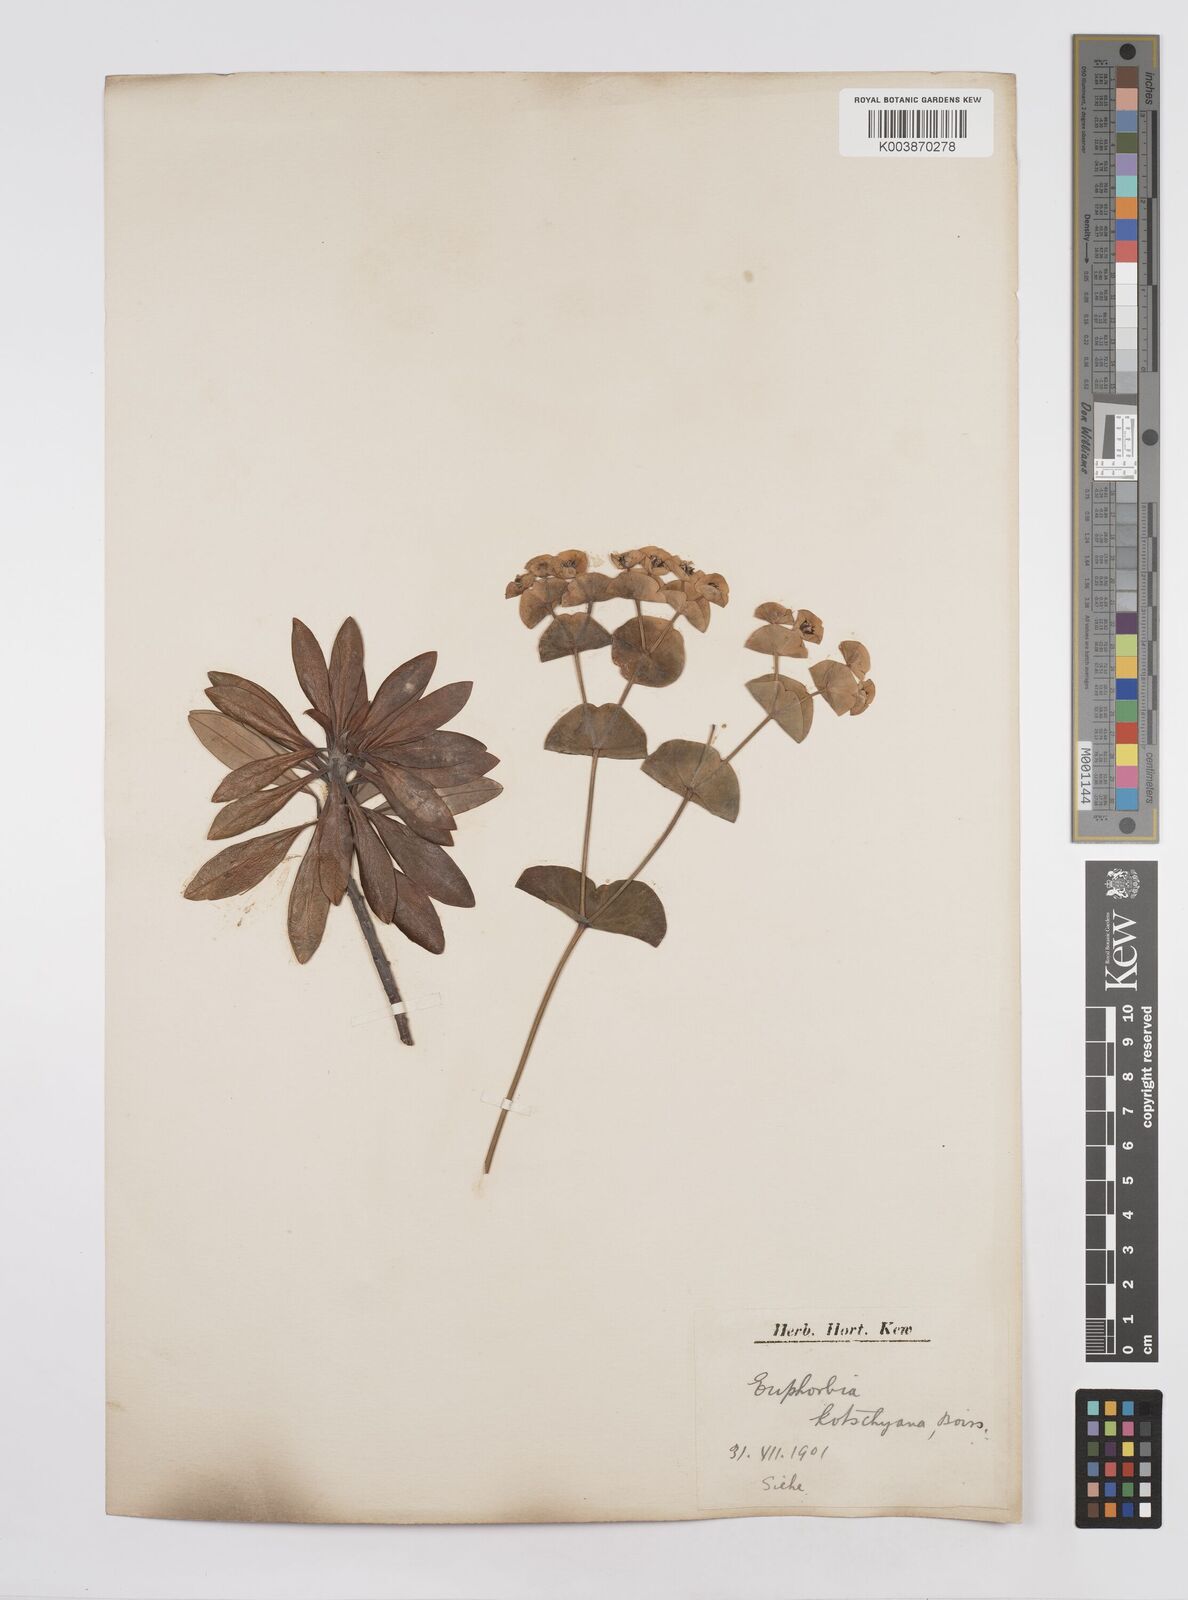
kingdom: Plantae
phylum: Tracheophyta
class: Magnoliopsida
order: Malpighiales
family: Euphorbiaceae
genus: Euphorbia
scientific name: Euphorbia kotschyana
